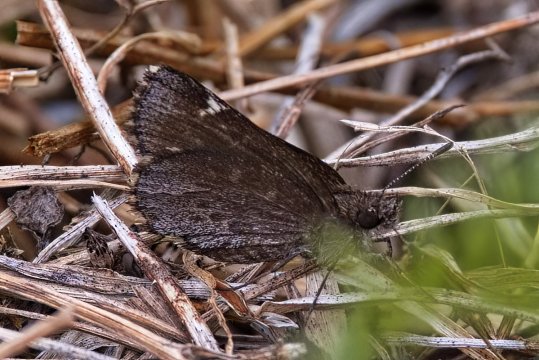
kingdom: Animalia
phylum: Arthropoda
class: Insecta
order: Lepidoptera
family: Hesperiidae
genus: Mastor
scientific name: Mastor vialis
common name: Common Roadside-Skipper
